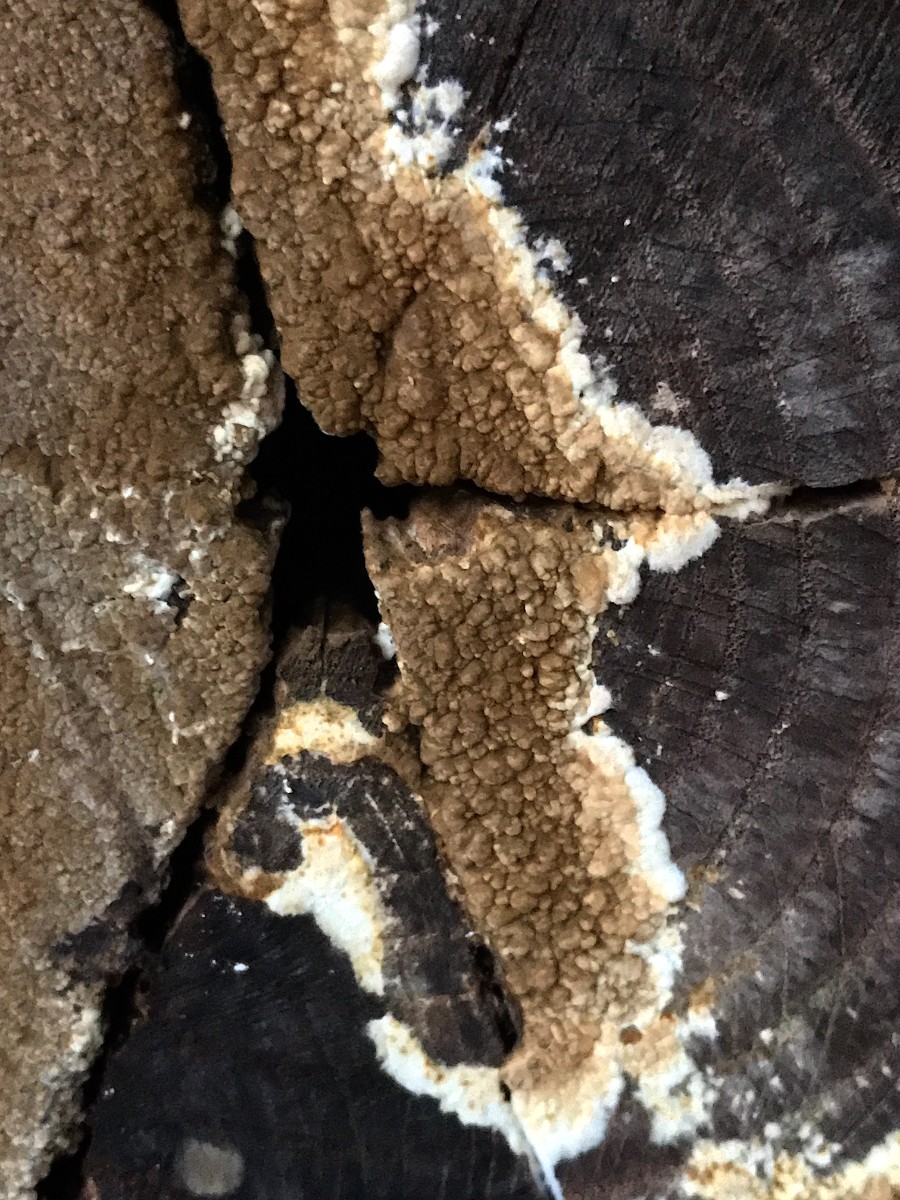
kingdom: Fungi
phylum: Basidiomycota
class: Agaricomycetes
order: Boletales
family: Coniophoraceae
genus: Coniophora
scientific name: Coniophora puteana
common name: gul tømmersvamp
